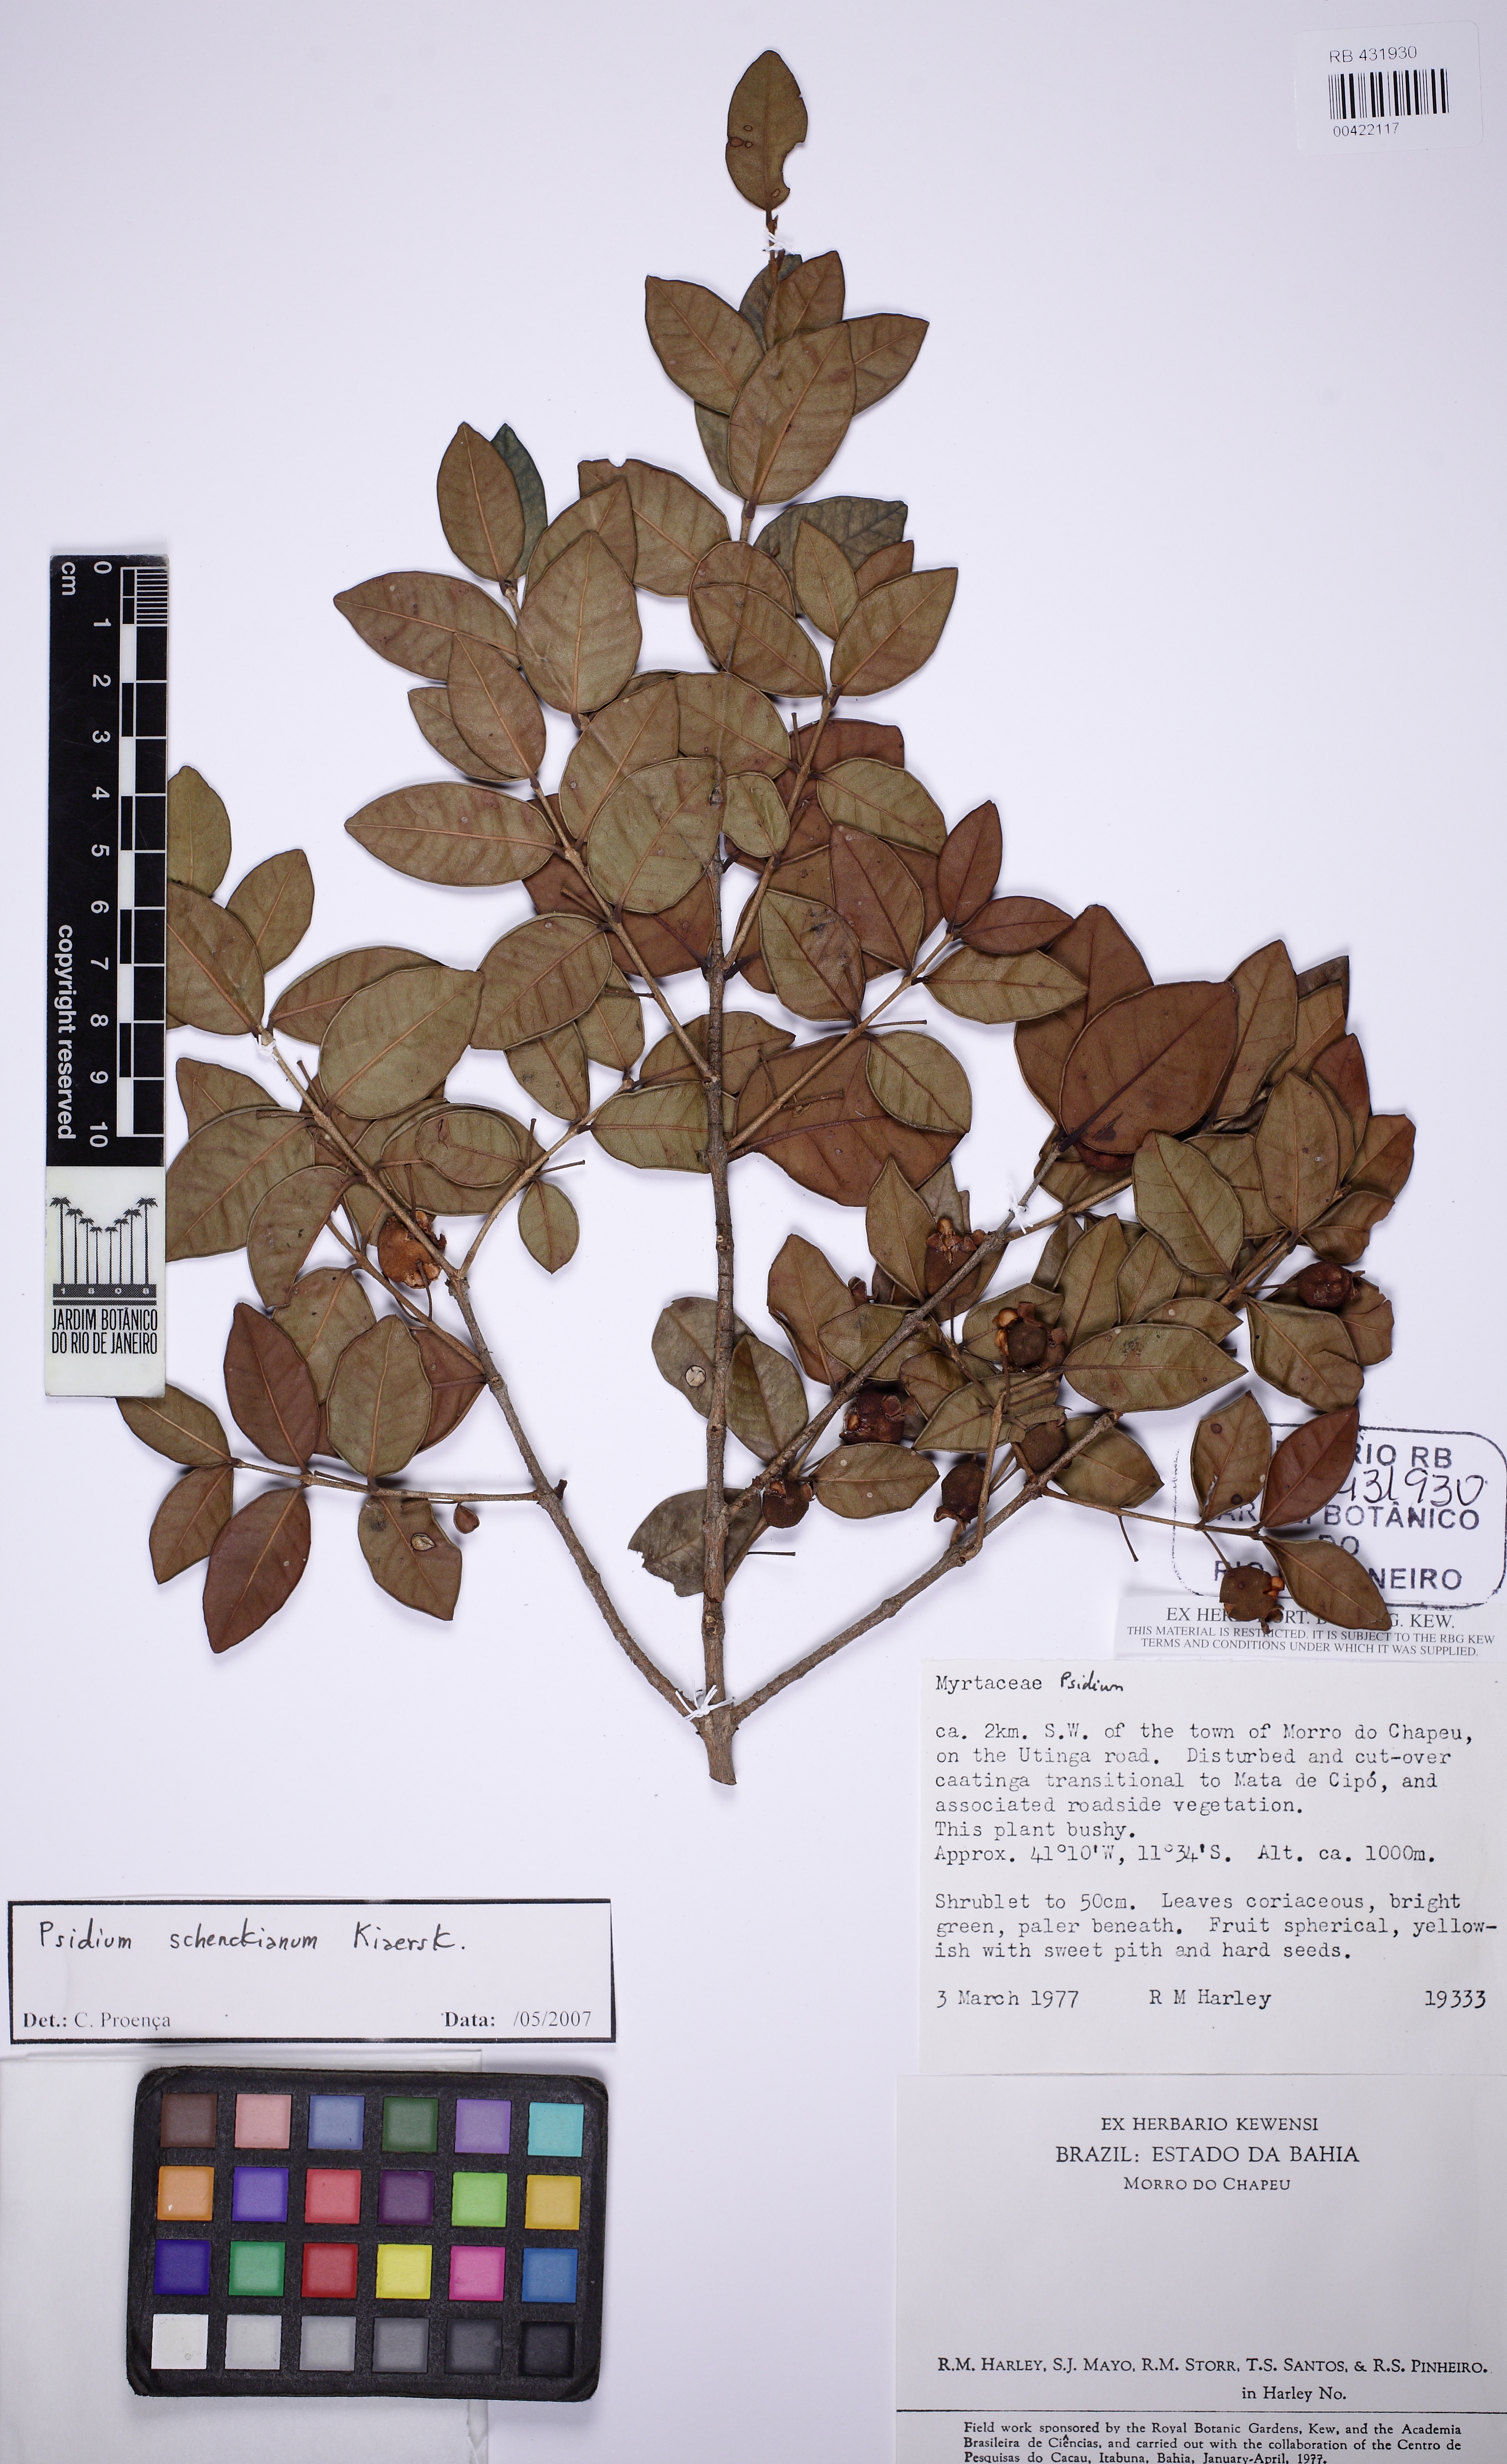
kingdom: Plantae
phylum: Tracheophyta
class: Magnoliopsida
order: Myrtales
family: Myrtaceae
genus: Psidium
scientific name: Psidium schenckianum
